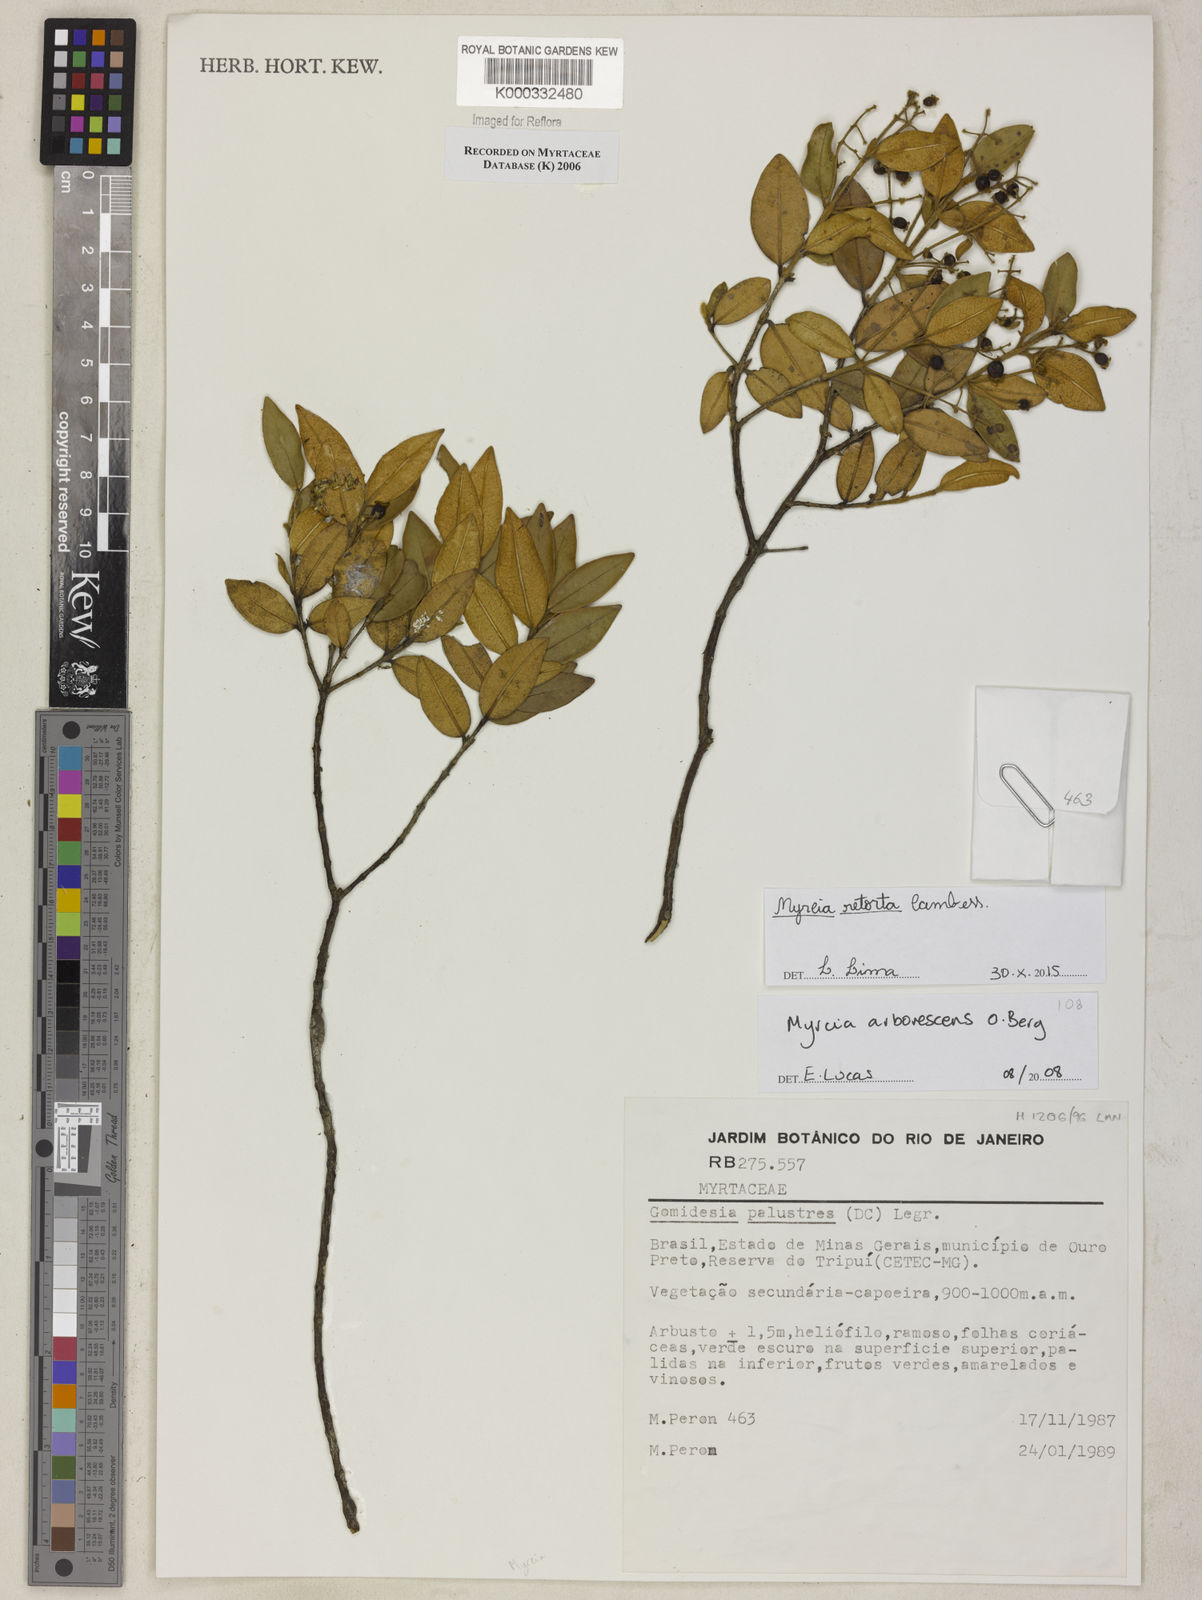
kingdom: Plantae
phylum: Tracheophyta
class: Magnoliopsida
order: Myrtales
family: Myrtaceae
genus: Myrcia
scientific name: Myrcia retorta
